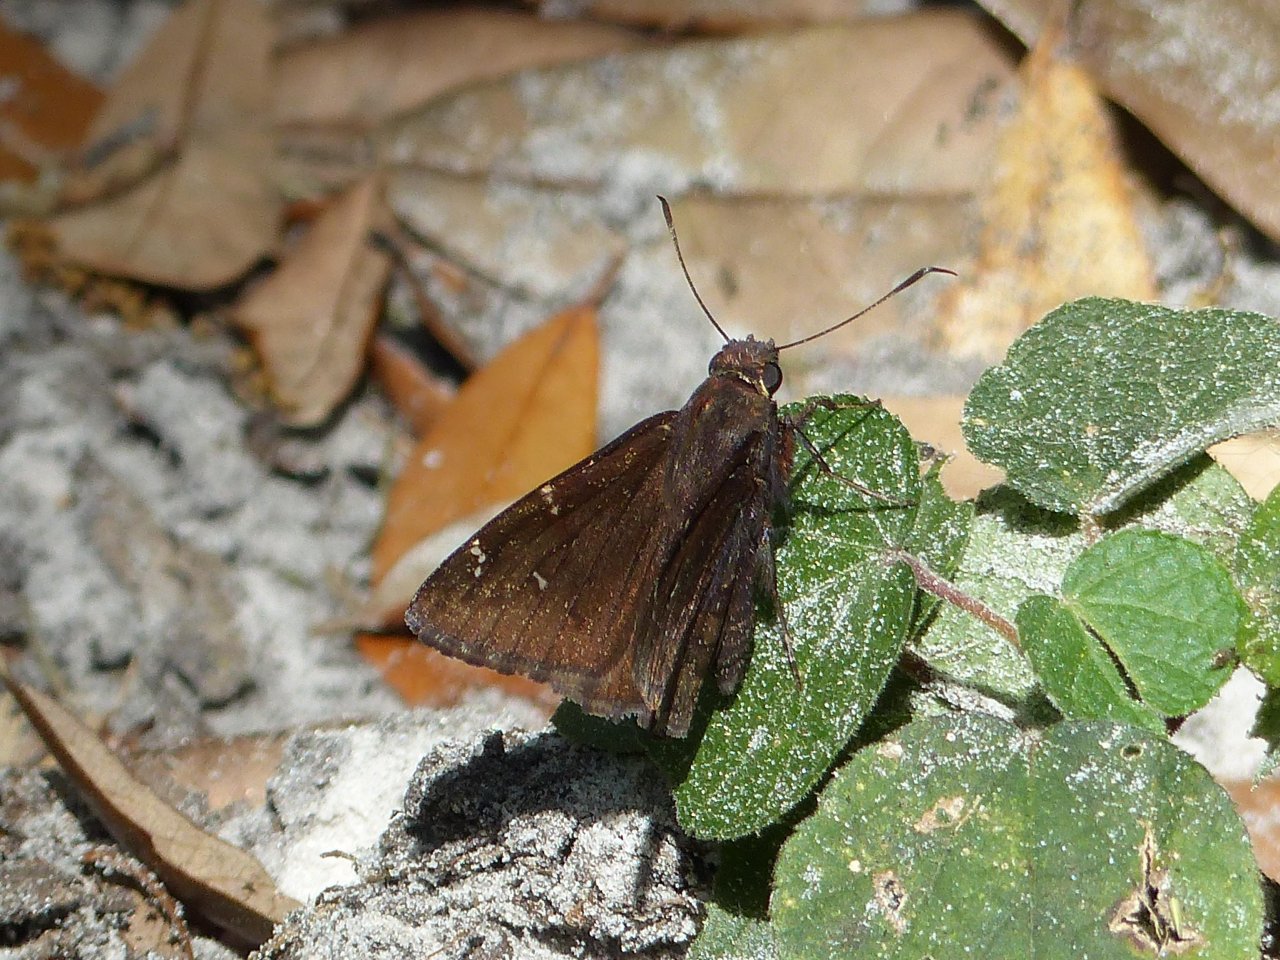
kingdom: Animalia
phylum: Arthropoda
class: Insecta
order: Lepidoptera
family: Hesperiidae
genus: Thorybes
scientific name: Thorybes mexicana
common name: Confused Cloudywing
